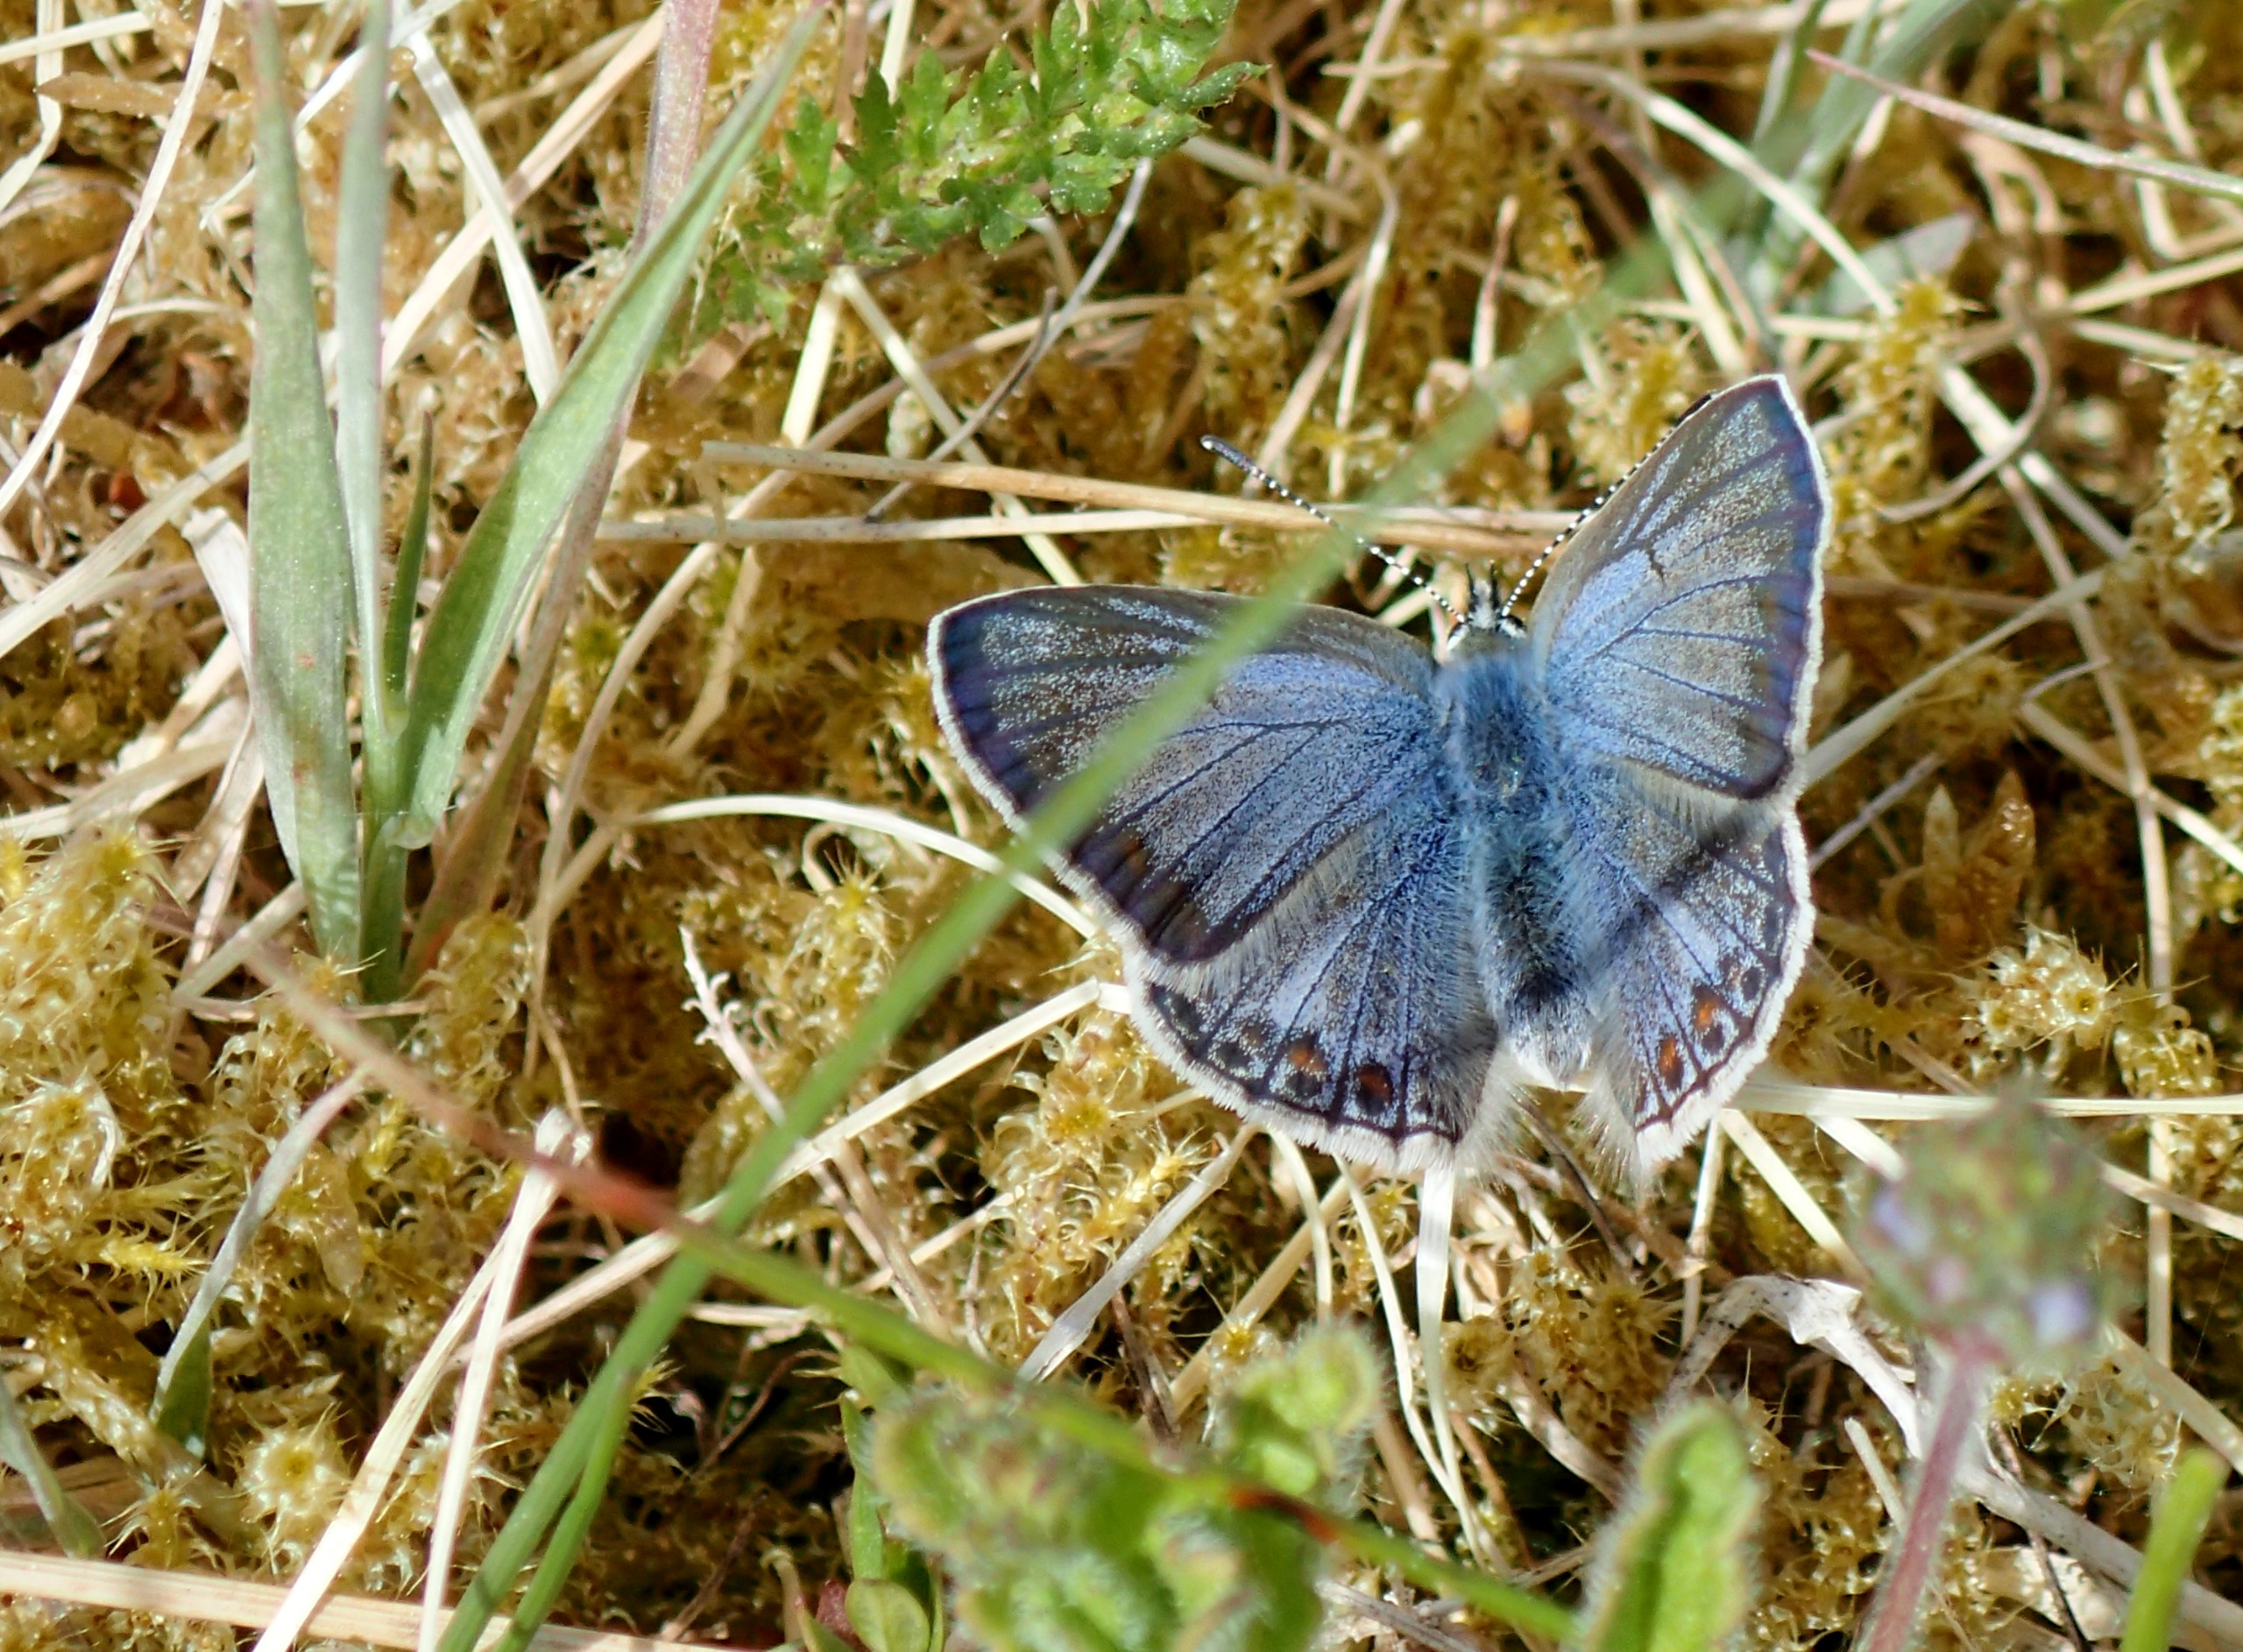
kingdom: Animalia
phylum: Arthropoda
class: Insecta
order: Lepidoptera
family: Lycaenidae
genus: Polyommatus
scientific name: Polyommatus icarus
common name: Almindelig blåfugl
